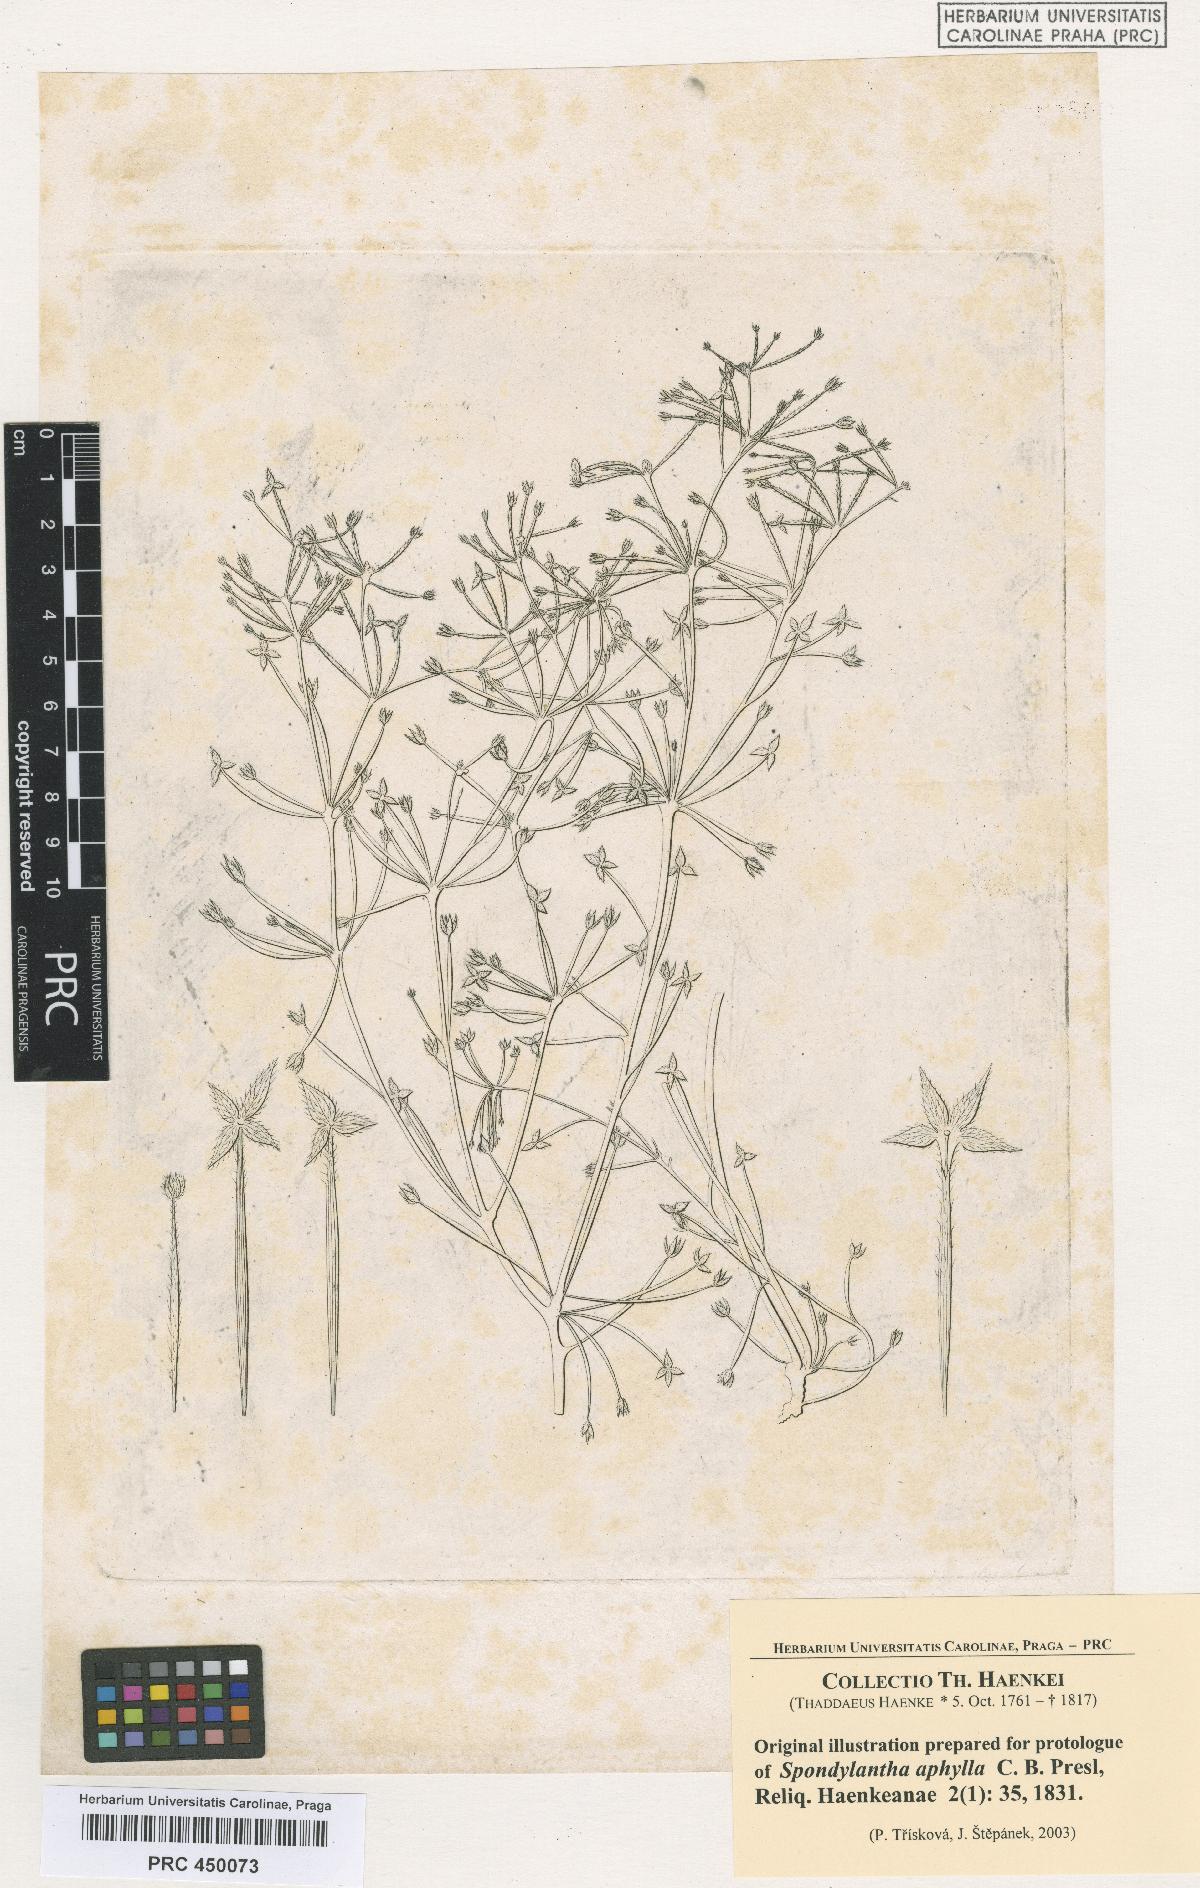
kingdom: Plantae
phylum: Tracheophyta
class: Magnoliopsida
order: Vitales
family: Vitaceae
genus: Cissus
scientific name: Cissus verticillata
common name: Princess vine
